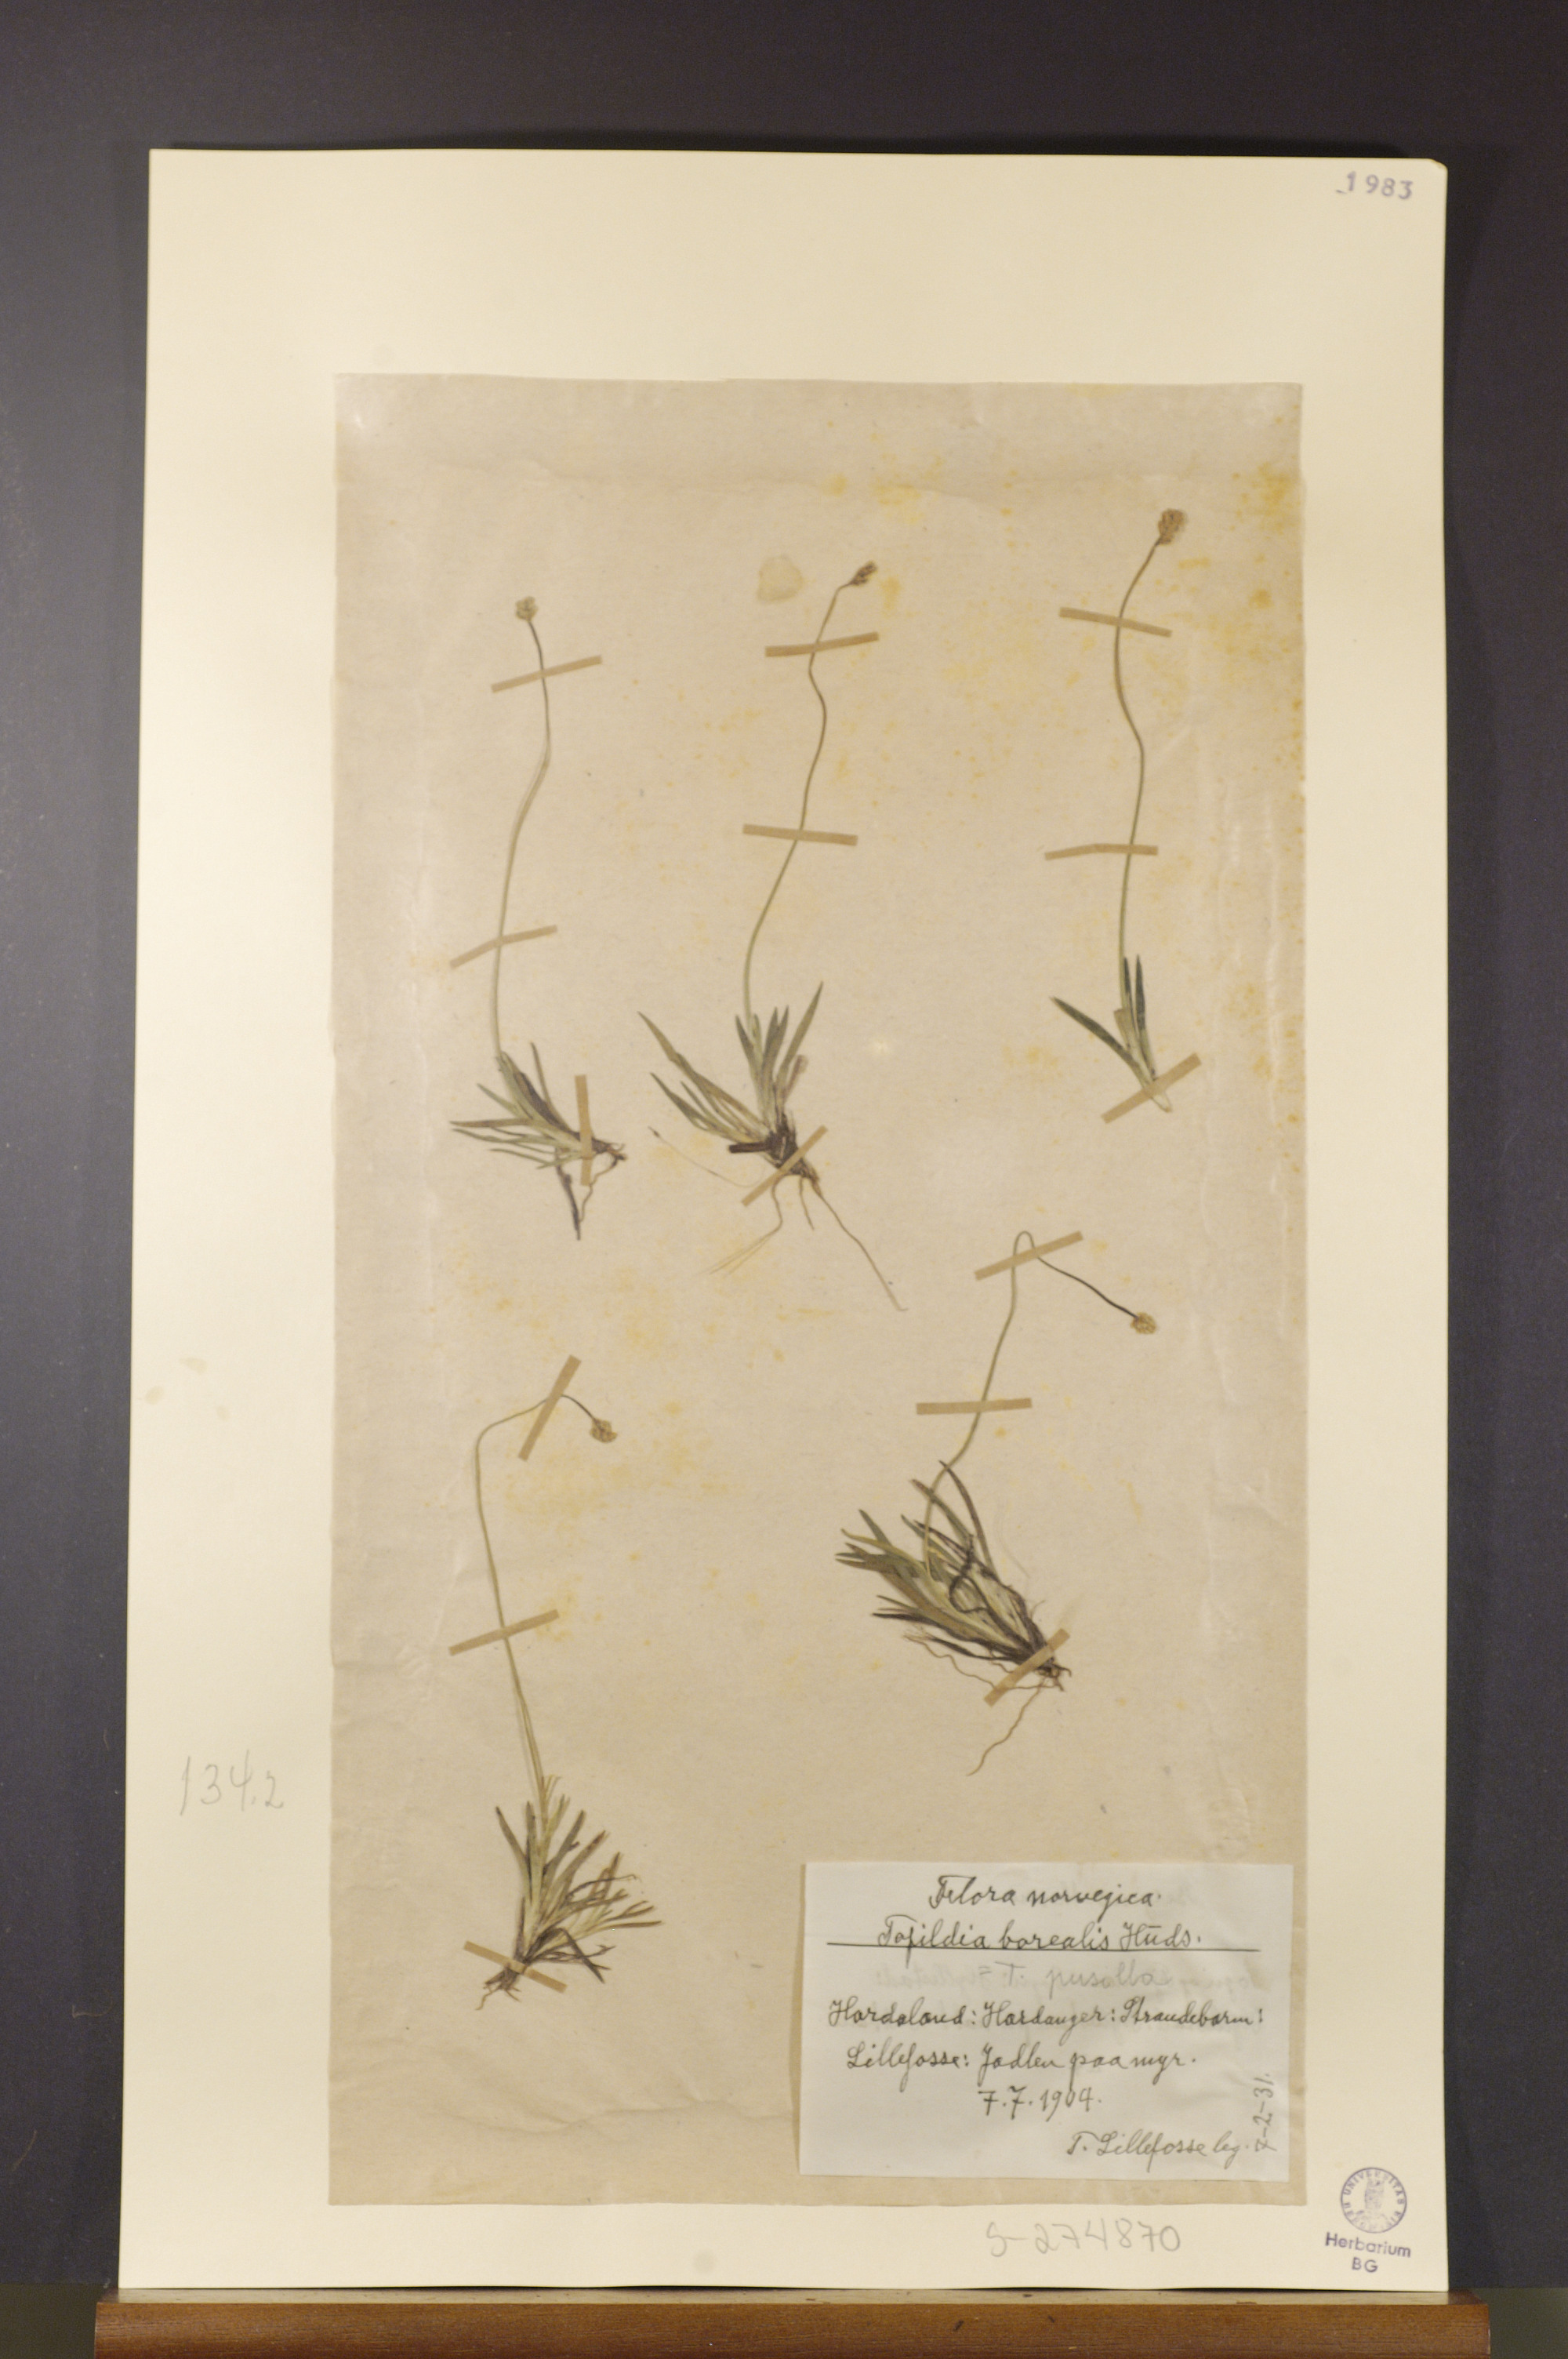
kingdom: Plantae
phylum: Tracheophyta
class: Liliopsida
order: Alismatales
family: Tofieldiaceae
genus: Tofieldia
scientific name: Tofieldia pusilla
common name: Scottish false asphodel
